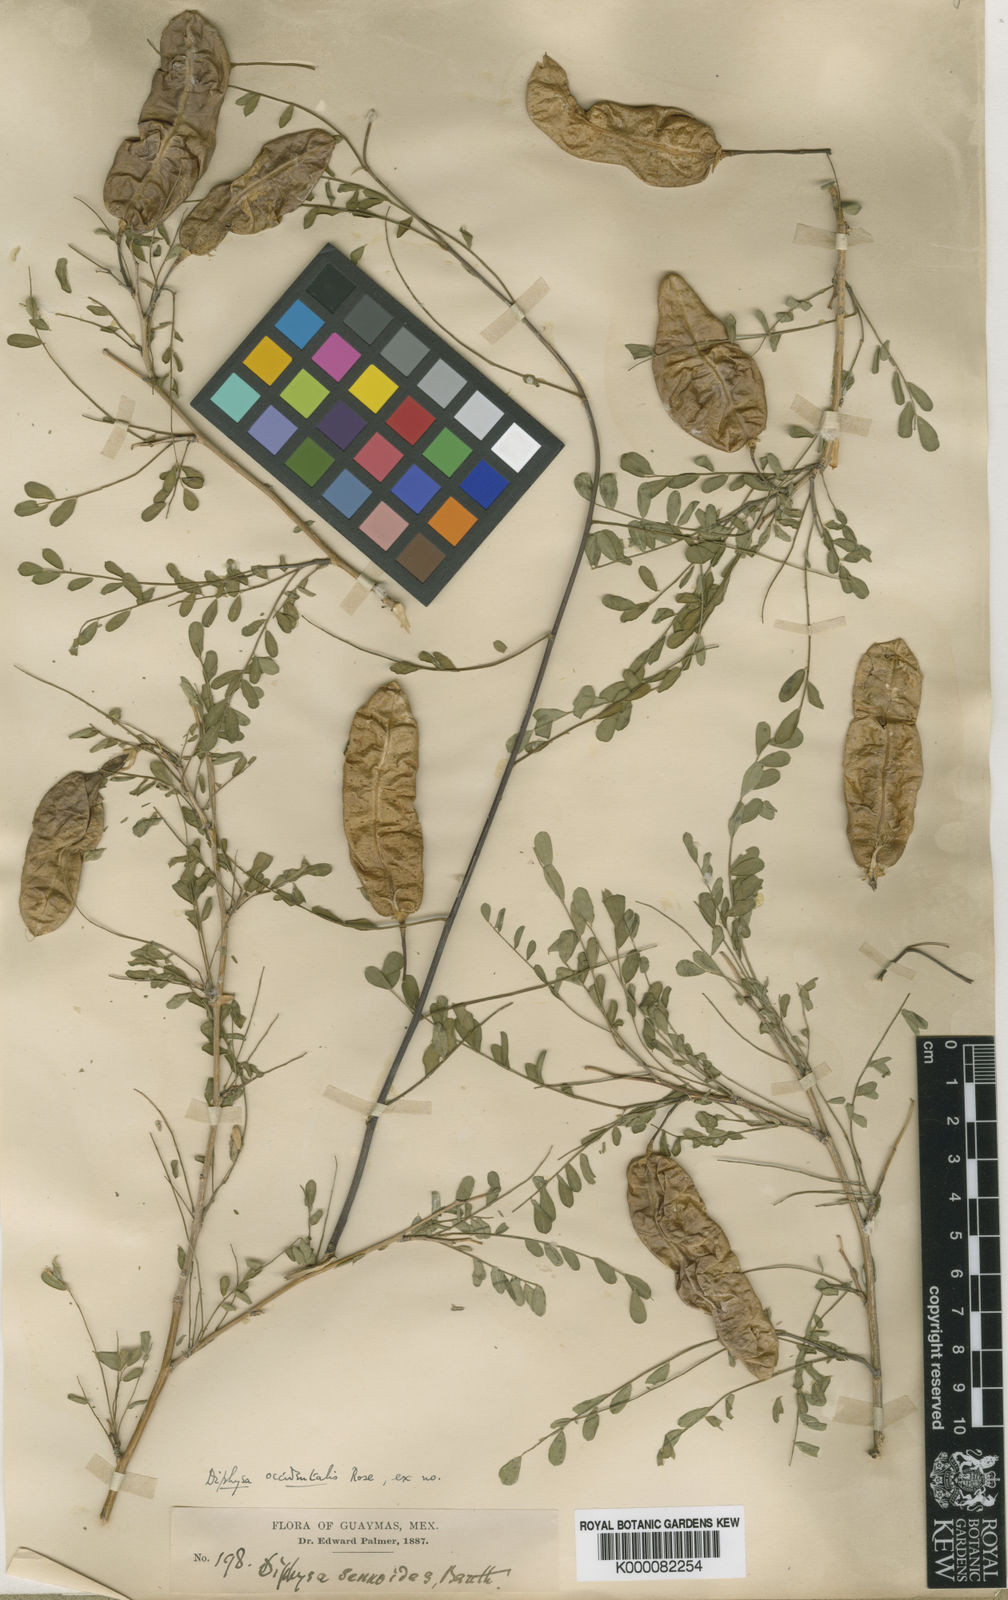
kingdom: Plantae
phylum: Tracheophyta
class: Magnoliopsida
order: Fabales
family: Fabaceae
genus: Diphysa
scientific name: Diphysa occidentalis
